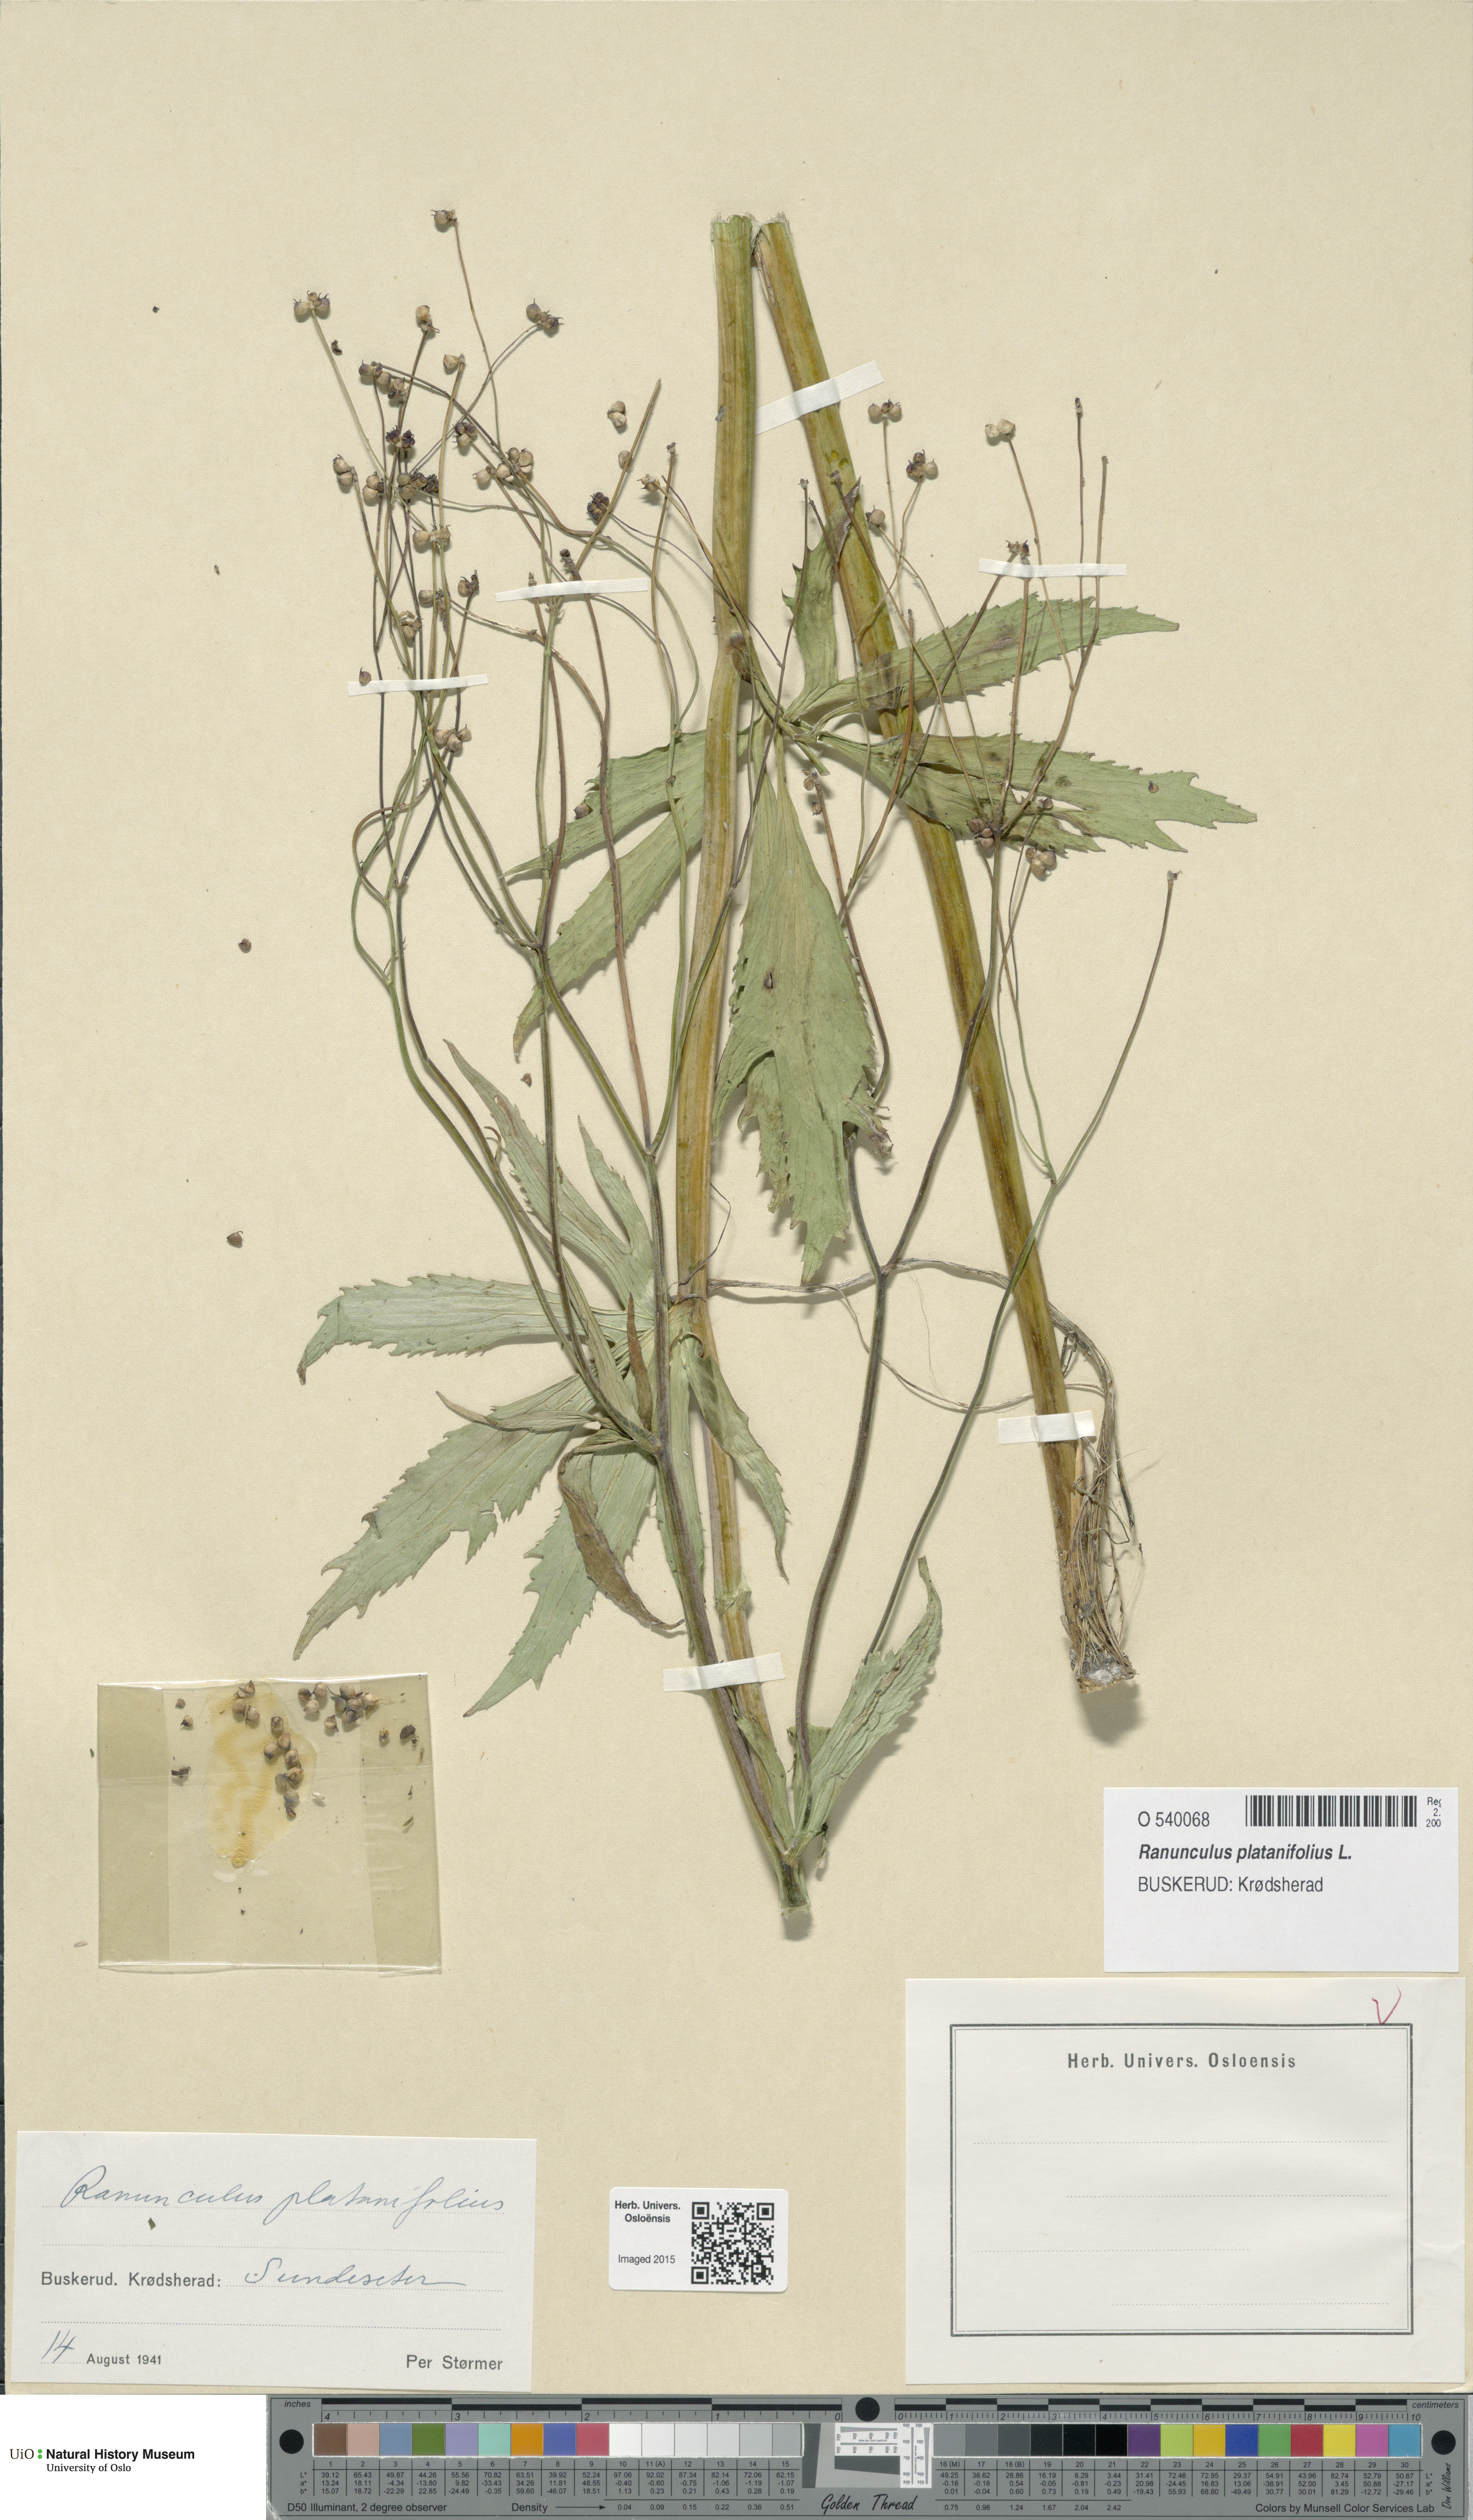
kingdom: Plantae
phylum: Tracheophyta
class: Magnoliopsida
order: Ranunculales
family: Ranunculaceae
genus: Ranunculus
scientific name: Ranunculus platanifolius
